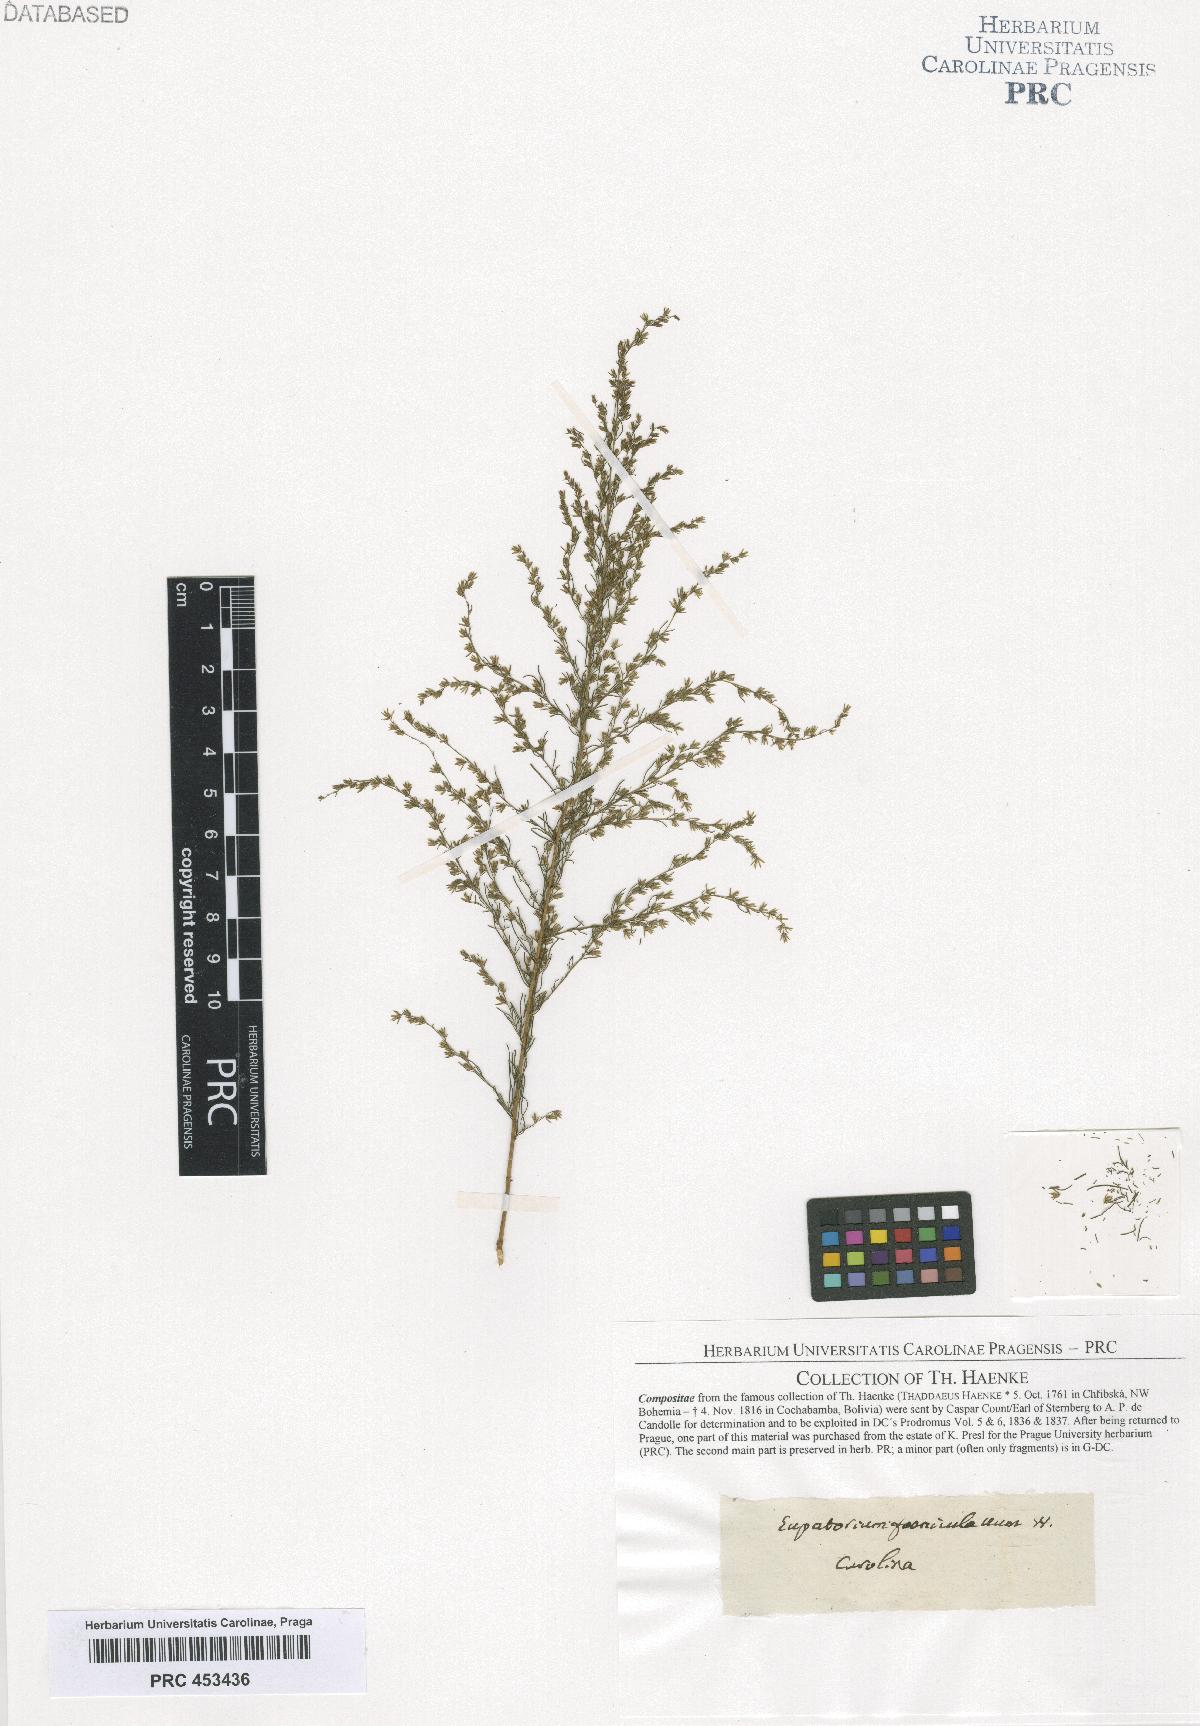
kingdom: Plantae
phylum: Tracheophyta
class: Magnoliopsida
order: Asterales
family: Asteraceae
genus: Eupatorium
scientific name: Eupatorium
